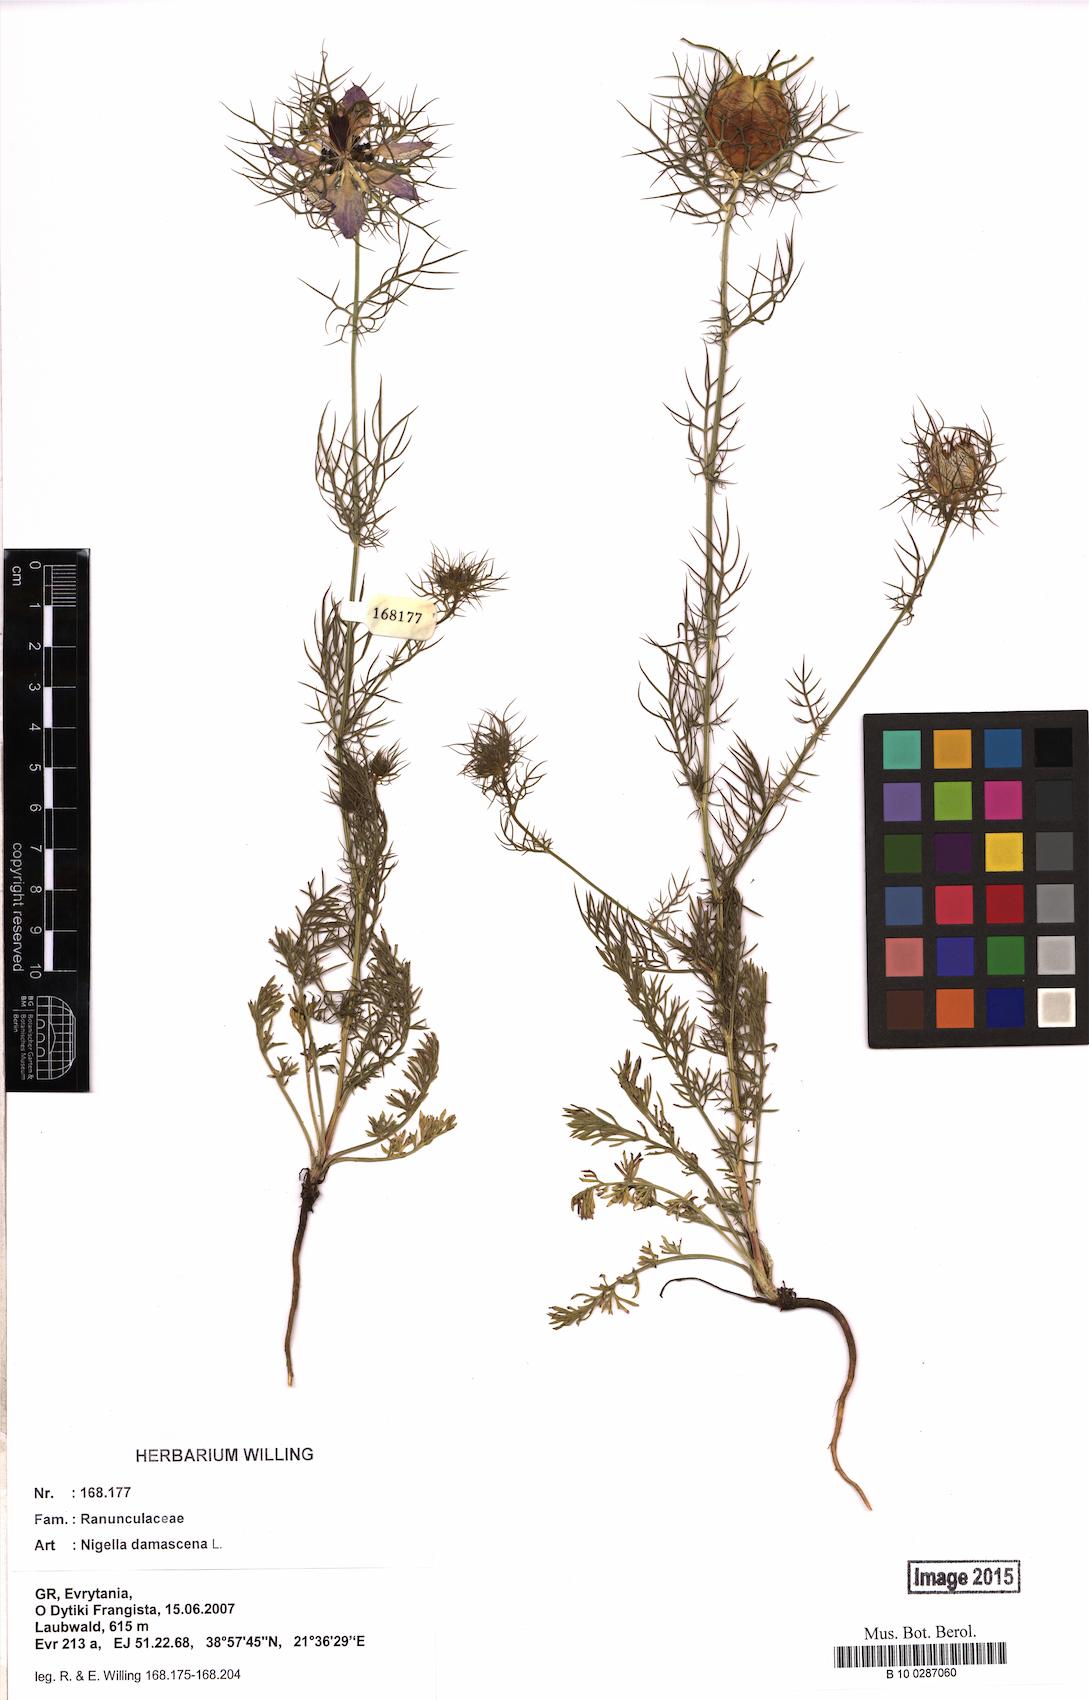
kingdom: Plantae
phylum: Tracheophyta
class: Magnoliopsida
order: Ranunculales
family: Ranunculaceae
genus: Nigella
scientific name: Nigella damascena
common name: Love-in-a-mist
